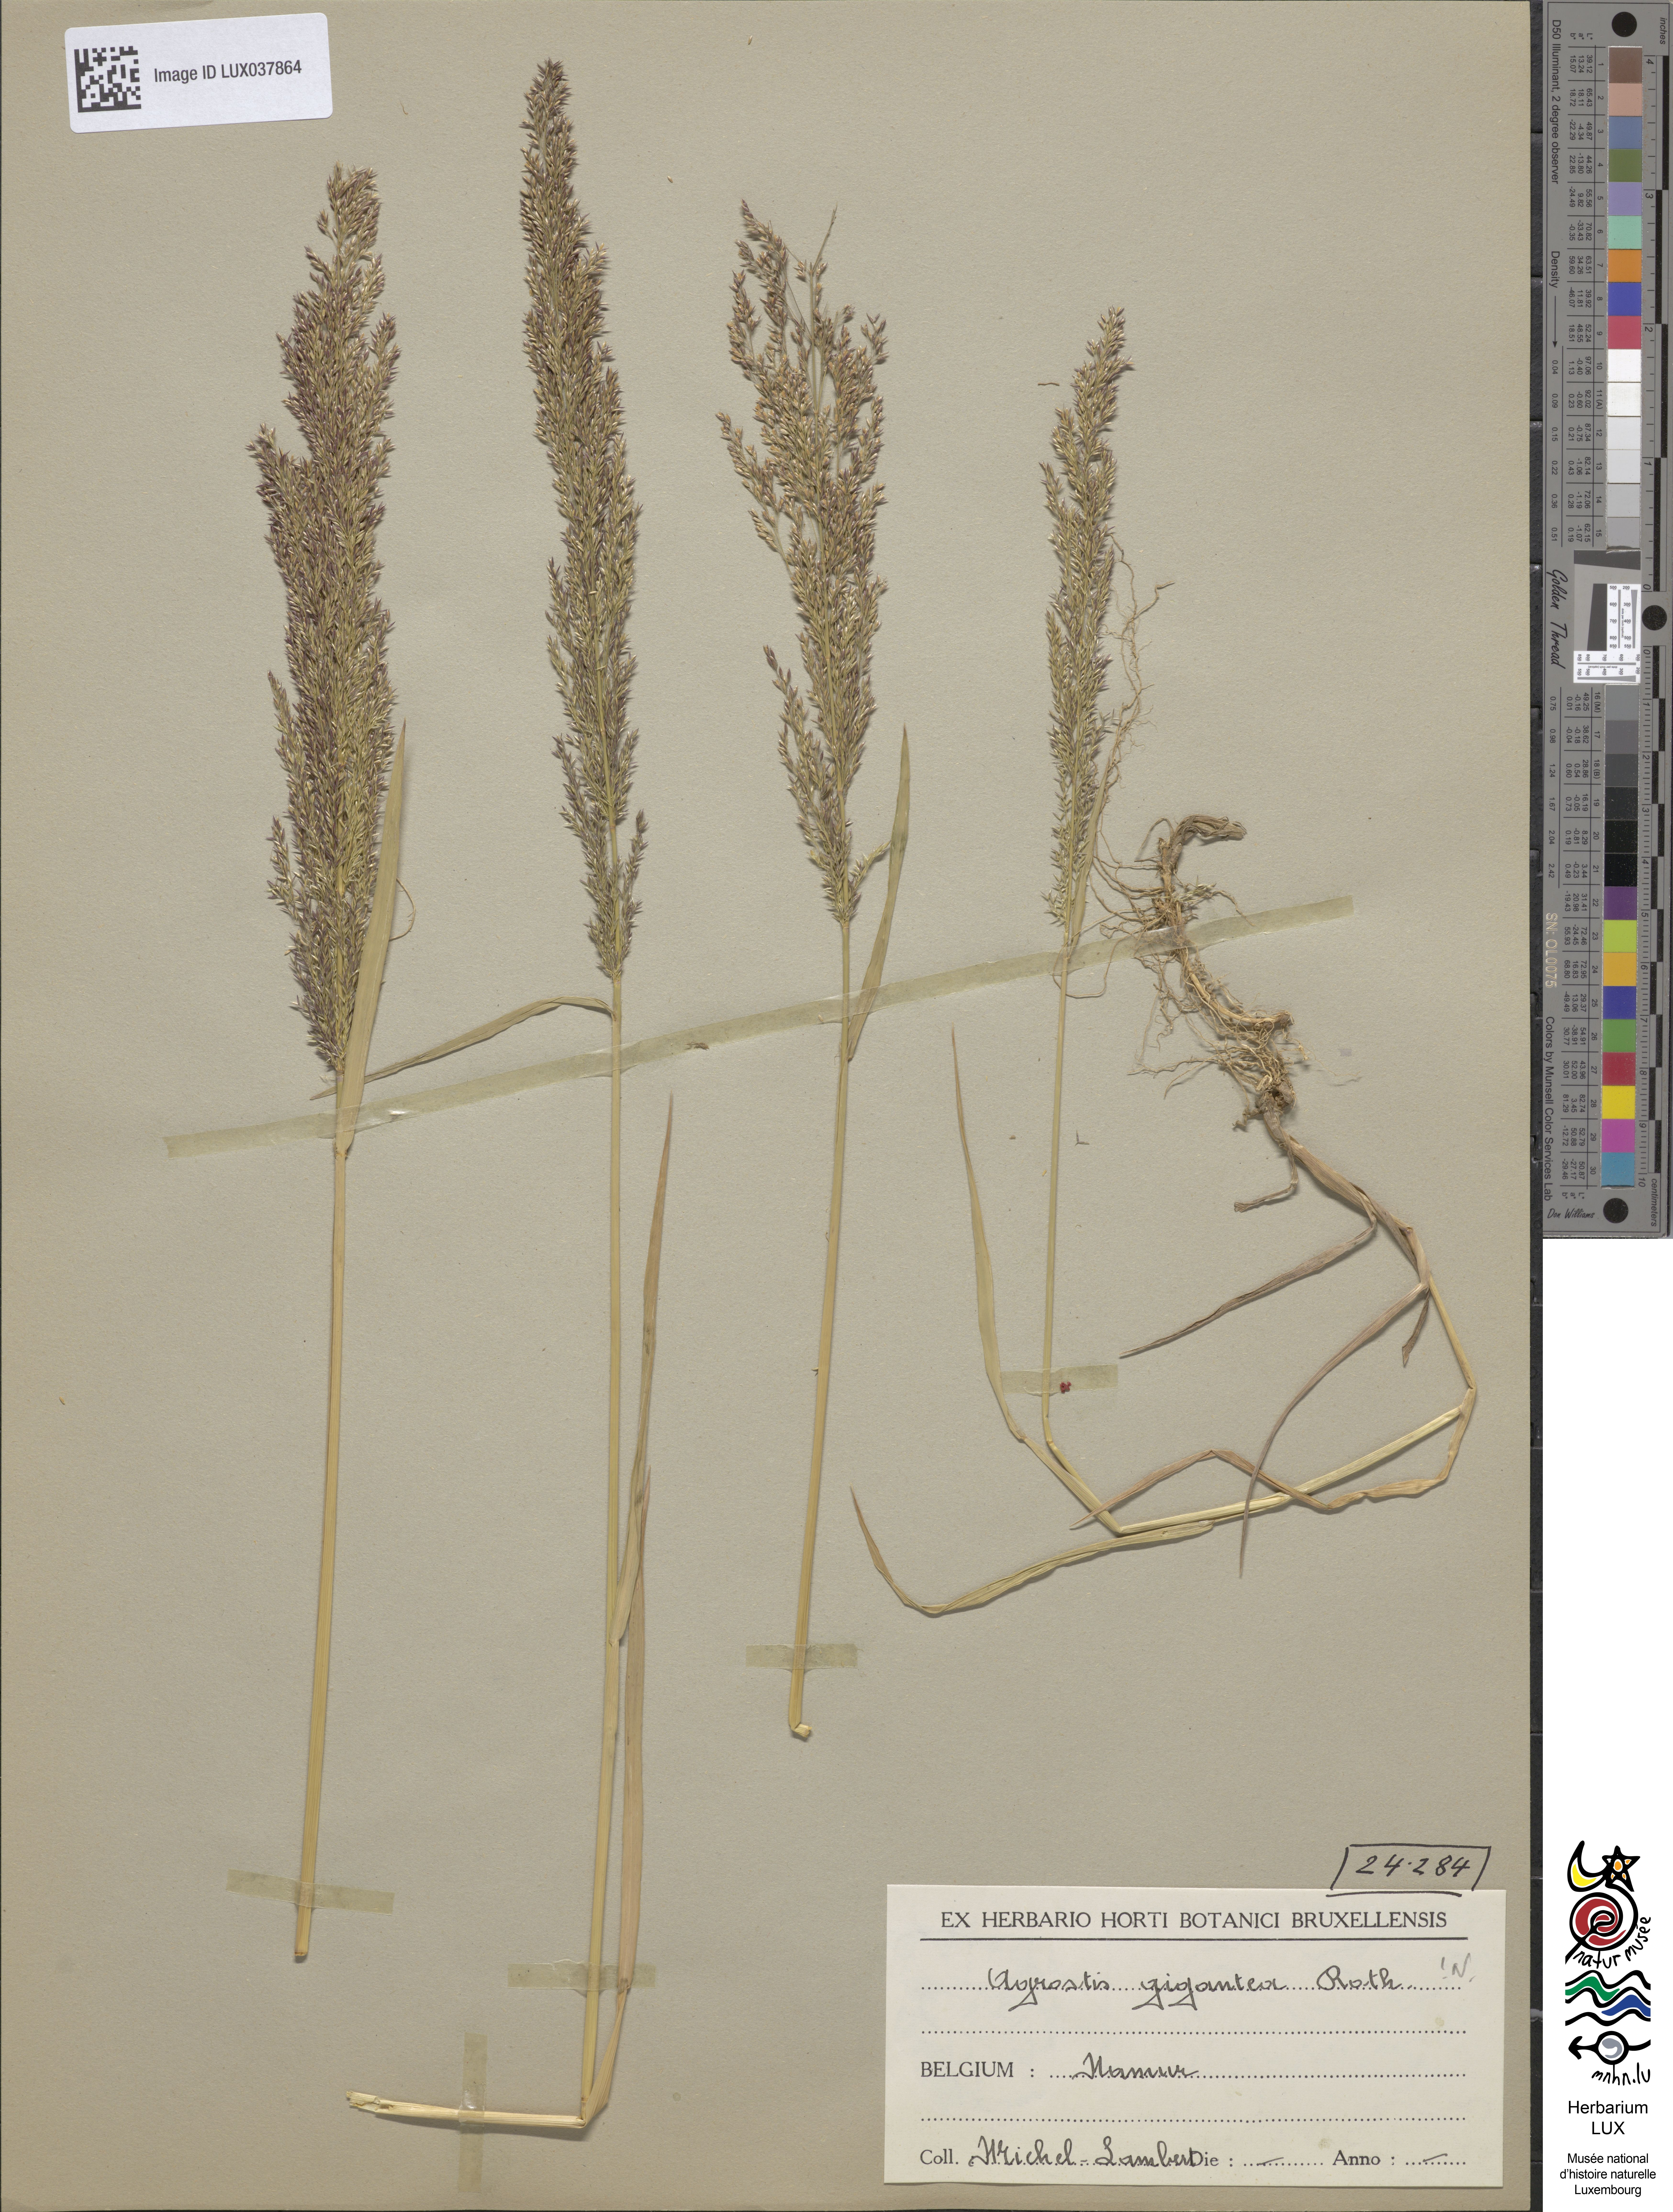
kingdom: Plantae
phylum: Tracheophyta
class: Liliopsida
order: Poales
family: Poaceae
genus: Agrostis
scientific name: Agrostis gigantea
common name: Black bent
